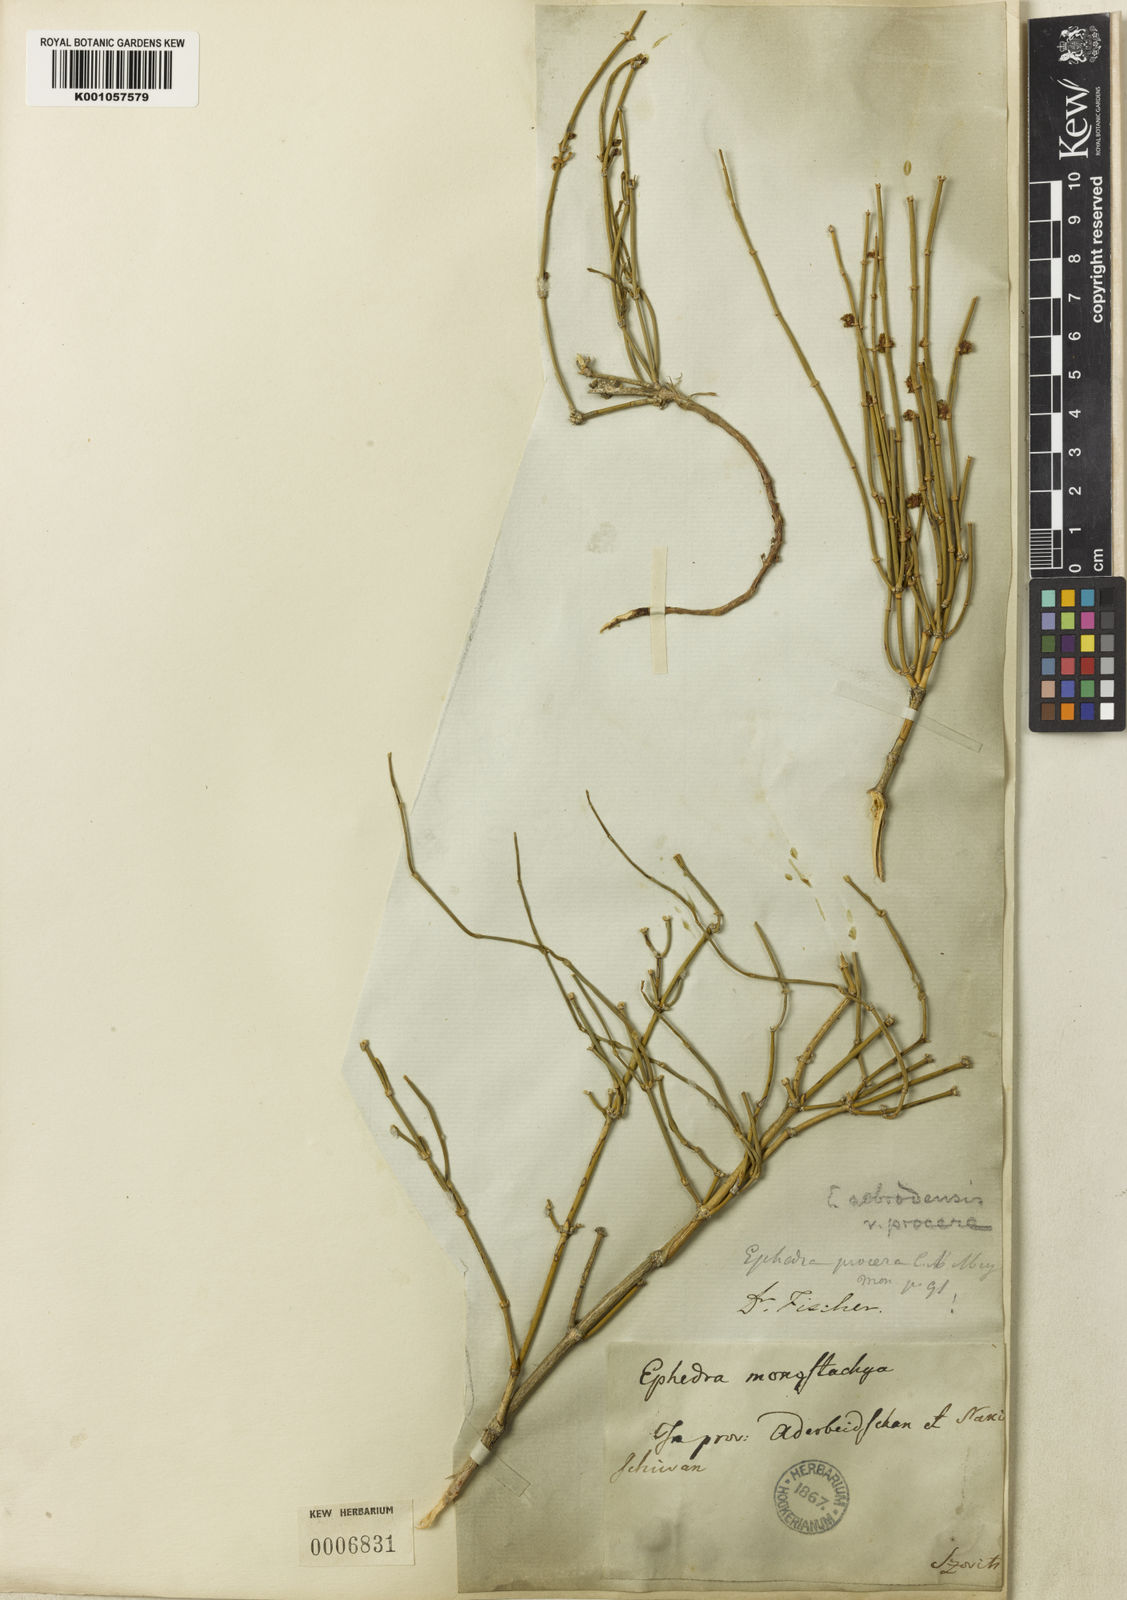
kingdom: Plantae
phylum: Tracheophyta
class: Gnetopsida
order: Ephedrales
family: Ephedraceae
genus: Ephedra
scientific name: Ephedra nebrodensis
